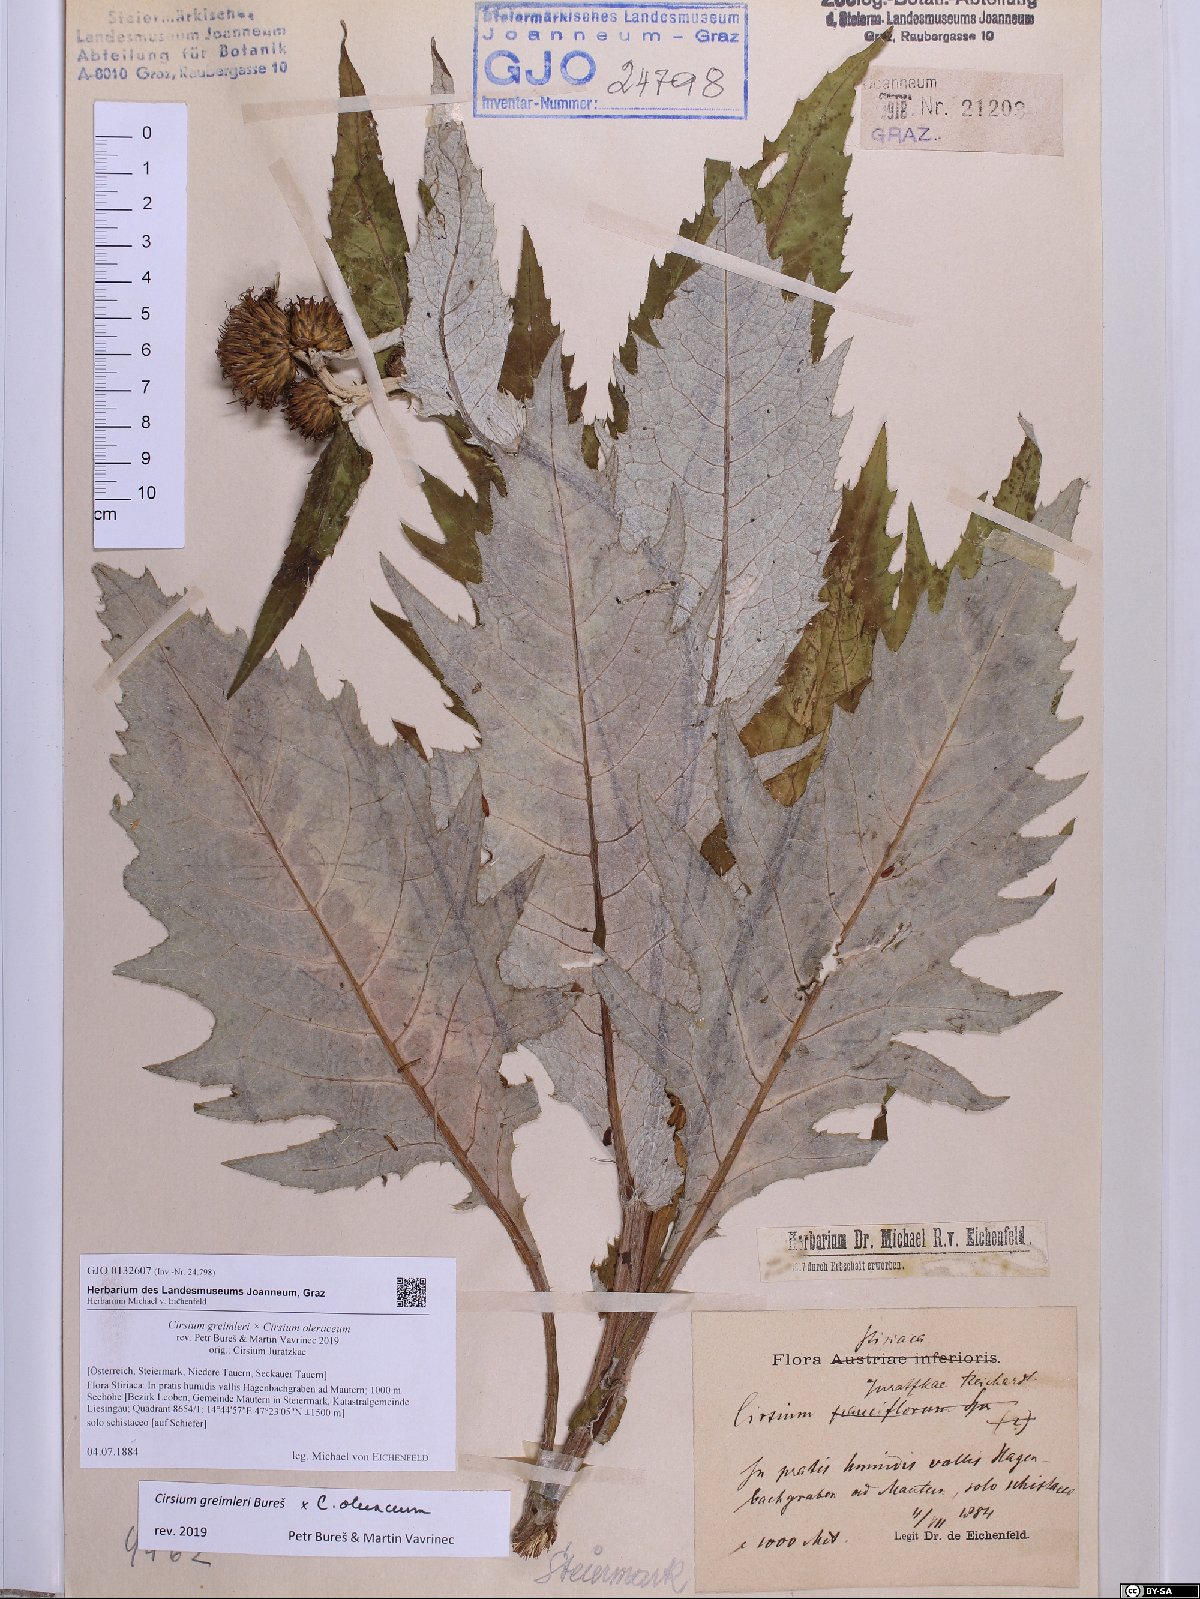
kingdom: Plantae
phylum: Tracheophyta
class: Magnoliopsida
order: Asterales
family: Asteraceae
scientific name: Asteraceae
